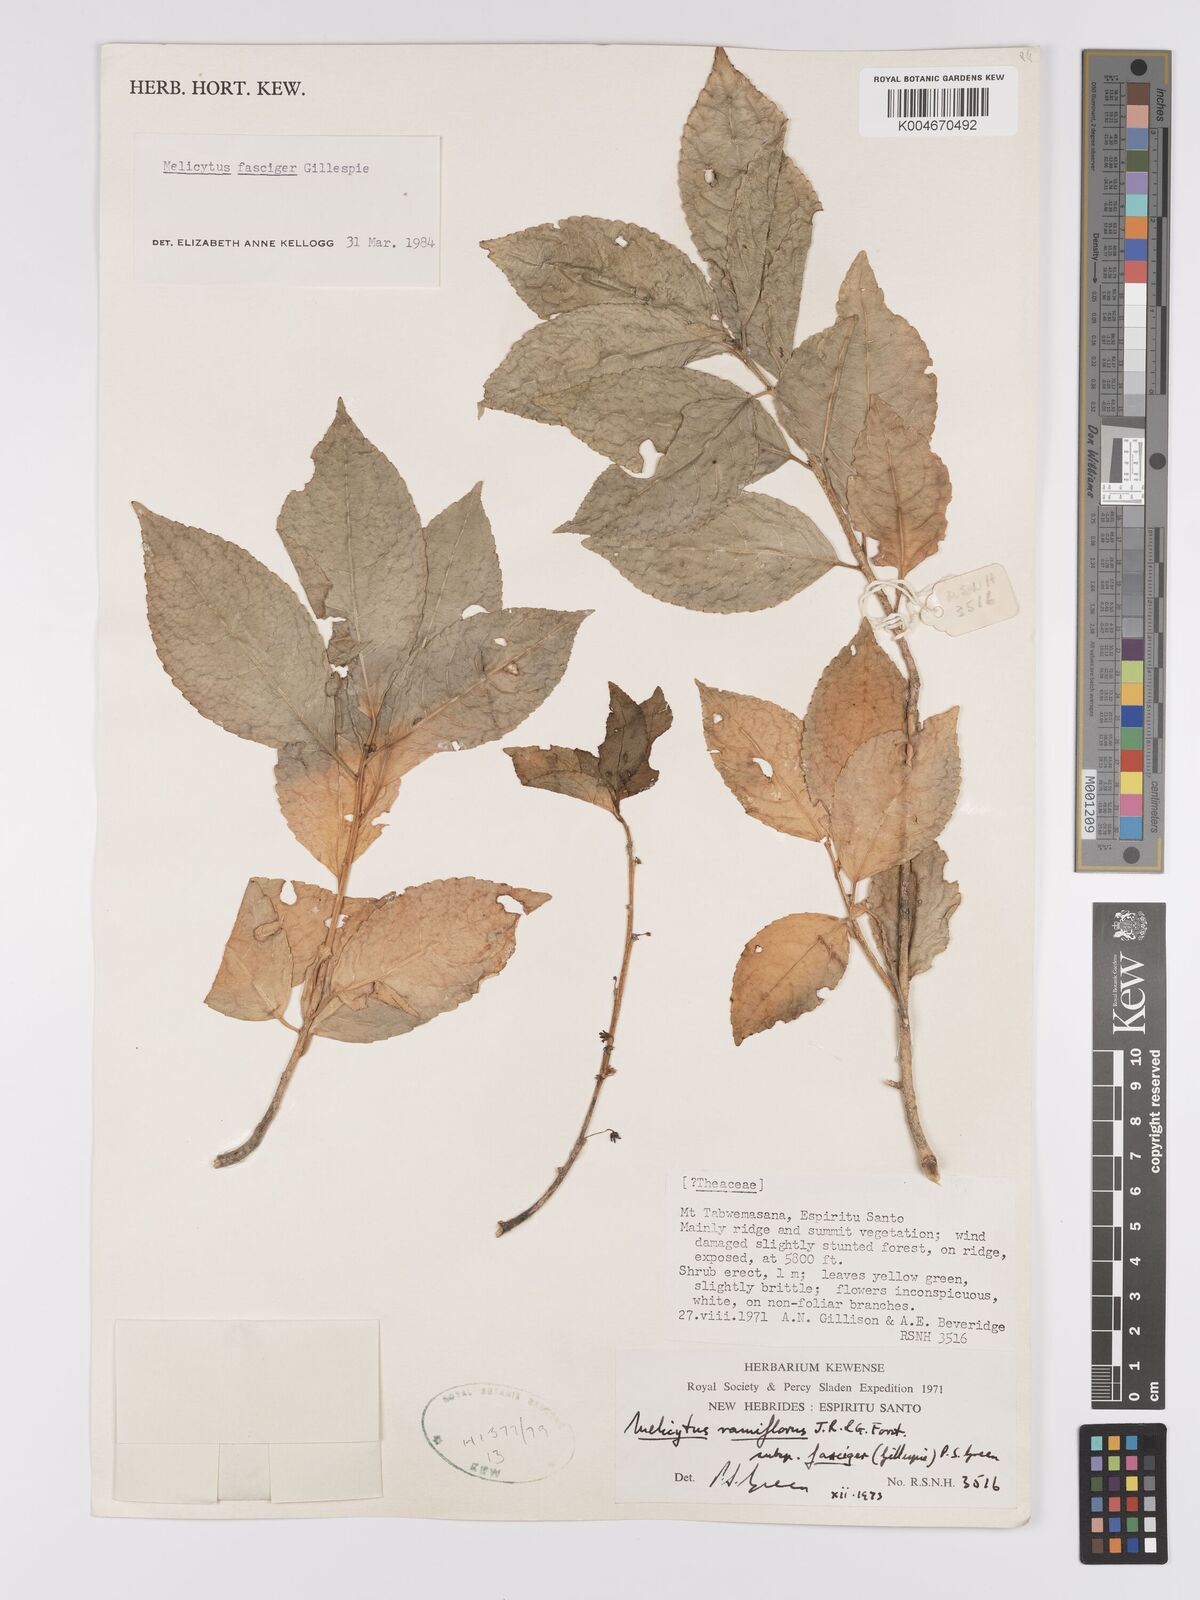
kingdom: Plantae
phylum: Tracheophyta
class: Magnoliopsida
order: Malpighiales
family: Violaceae
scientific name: Violaceae
